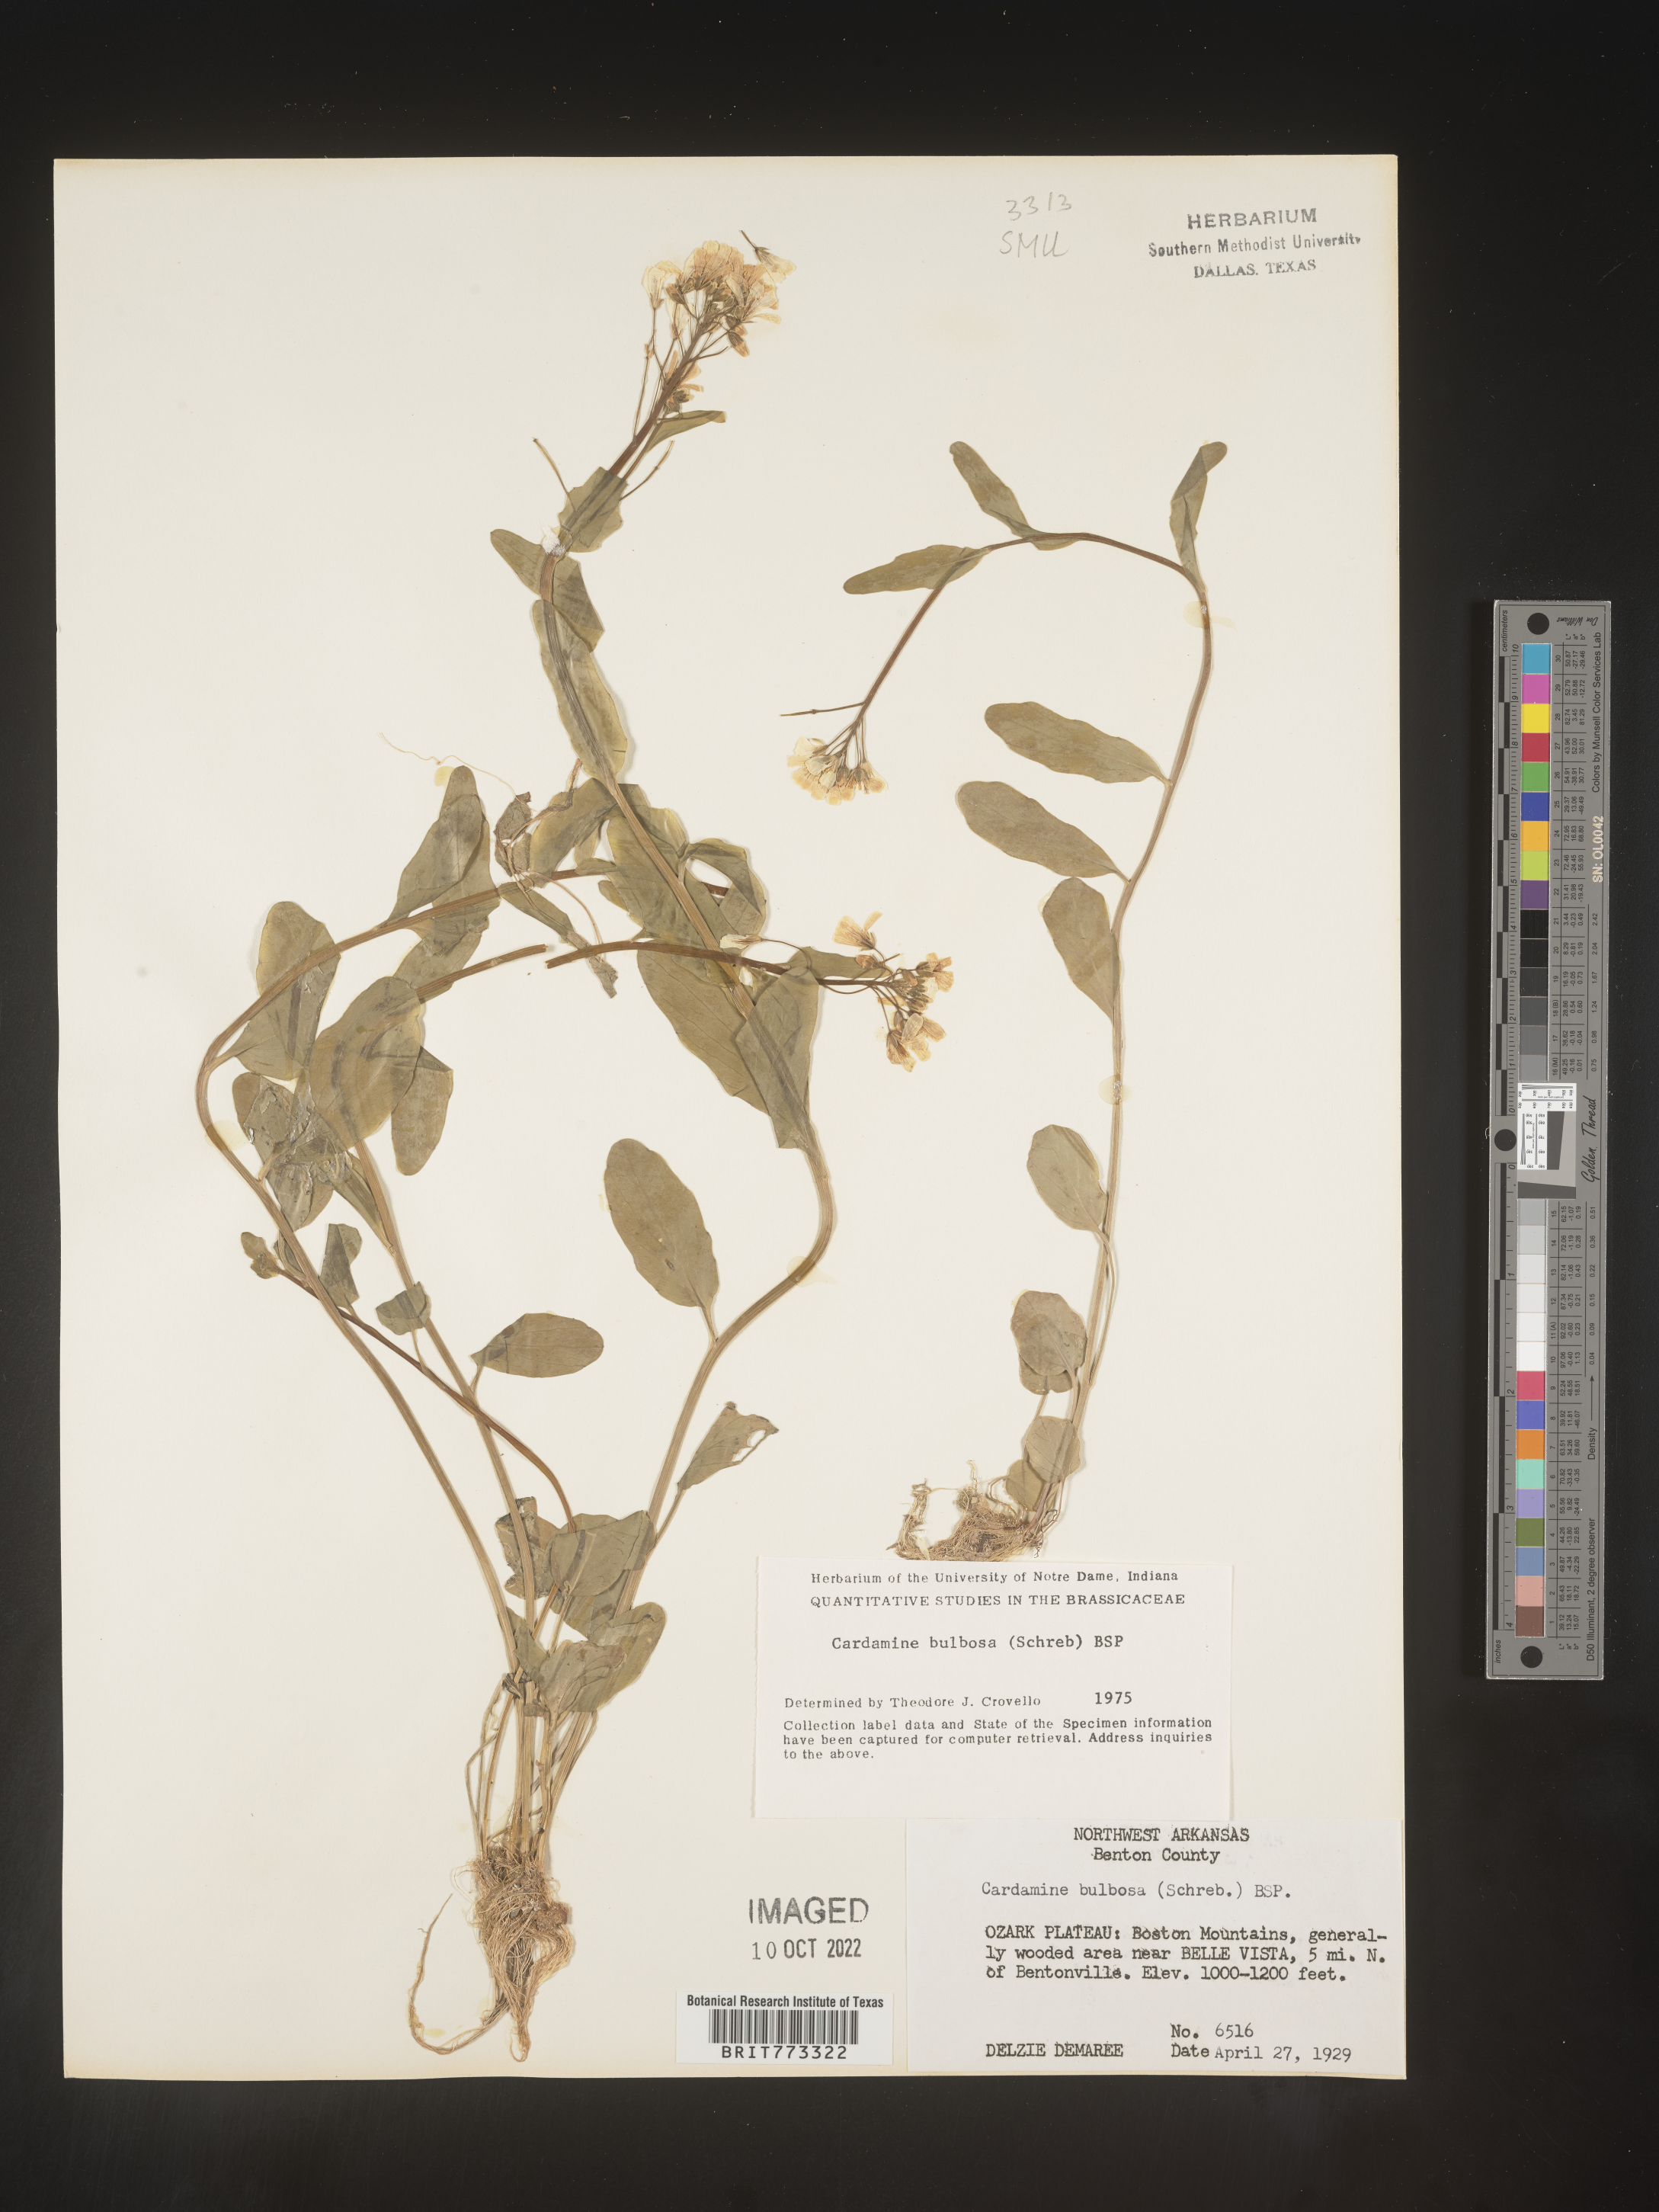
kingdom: Plantae
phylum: Tracheophyta
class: Magnoliopsida
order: Brassicales
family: Brassicaceae
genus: Cardamine
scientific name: Cardamine bulbosa
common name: Spring cress
